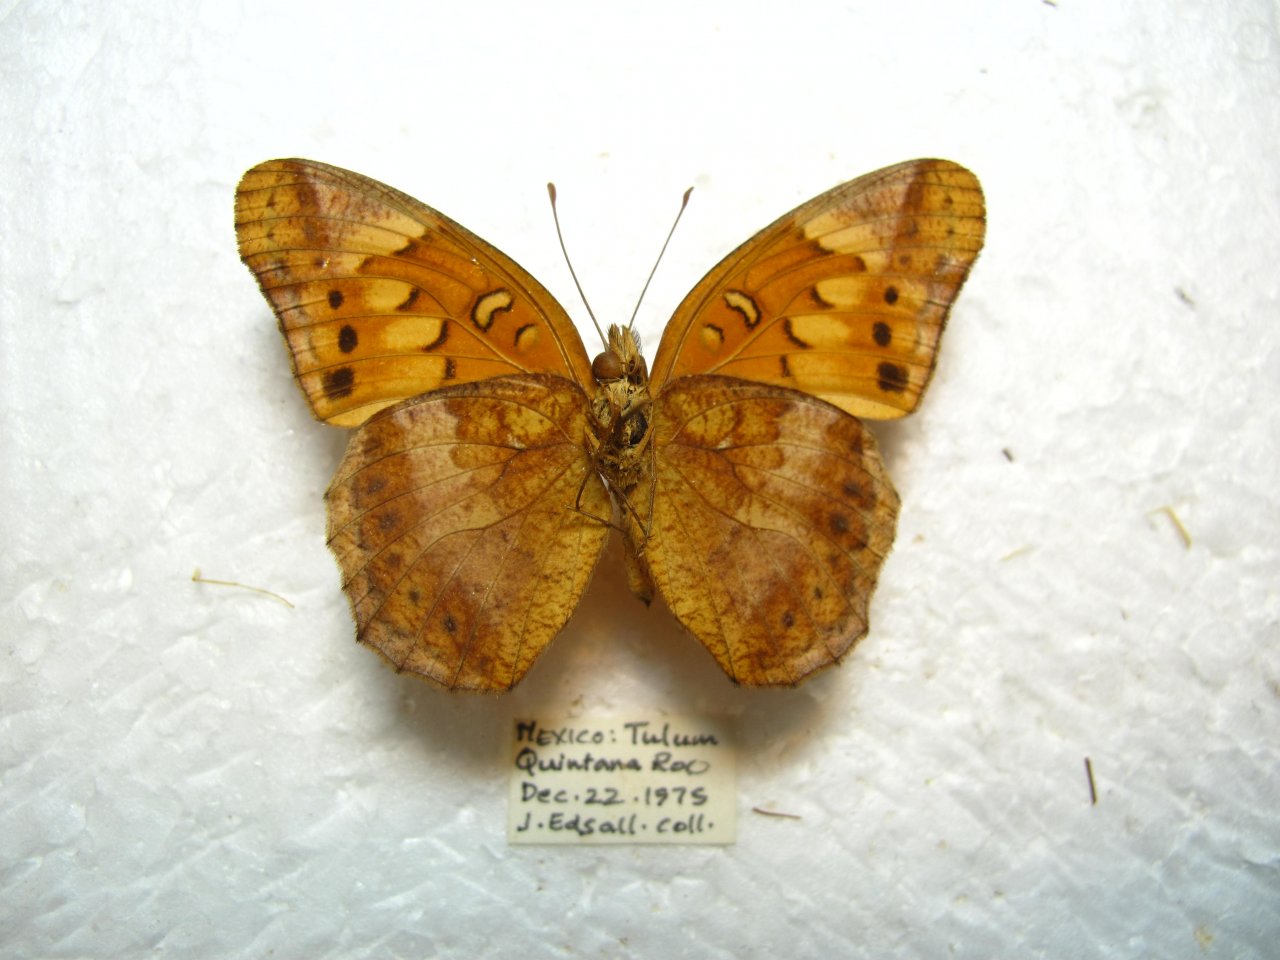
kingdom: Animalia
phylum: Arthropoda
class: Insecta
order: Lepidoptera
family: Nymphalidae
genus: Euptoieta
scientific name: Euptoieta hegesia
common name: Mexican Fritillary
